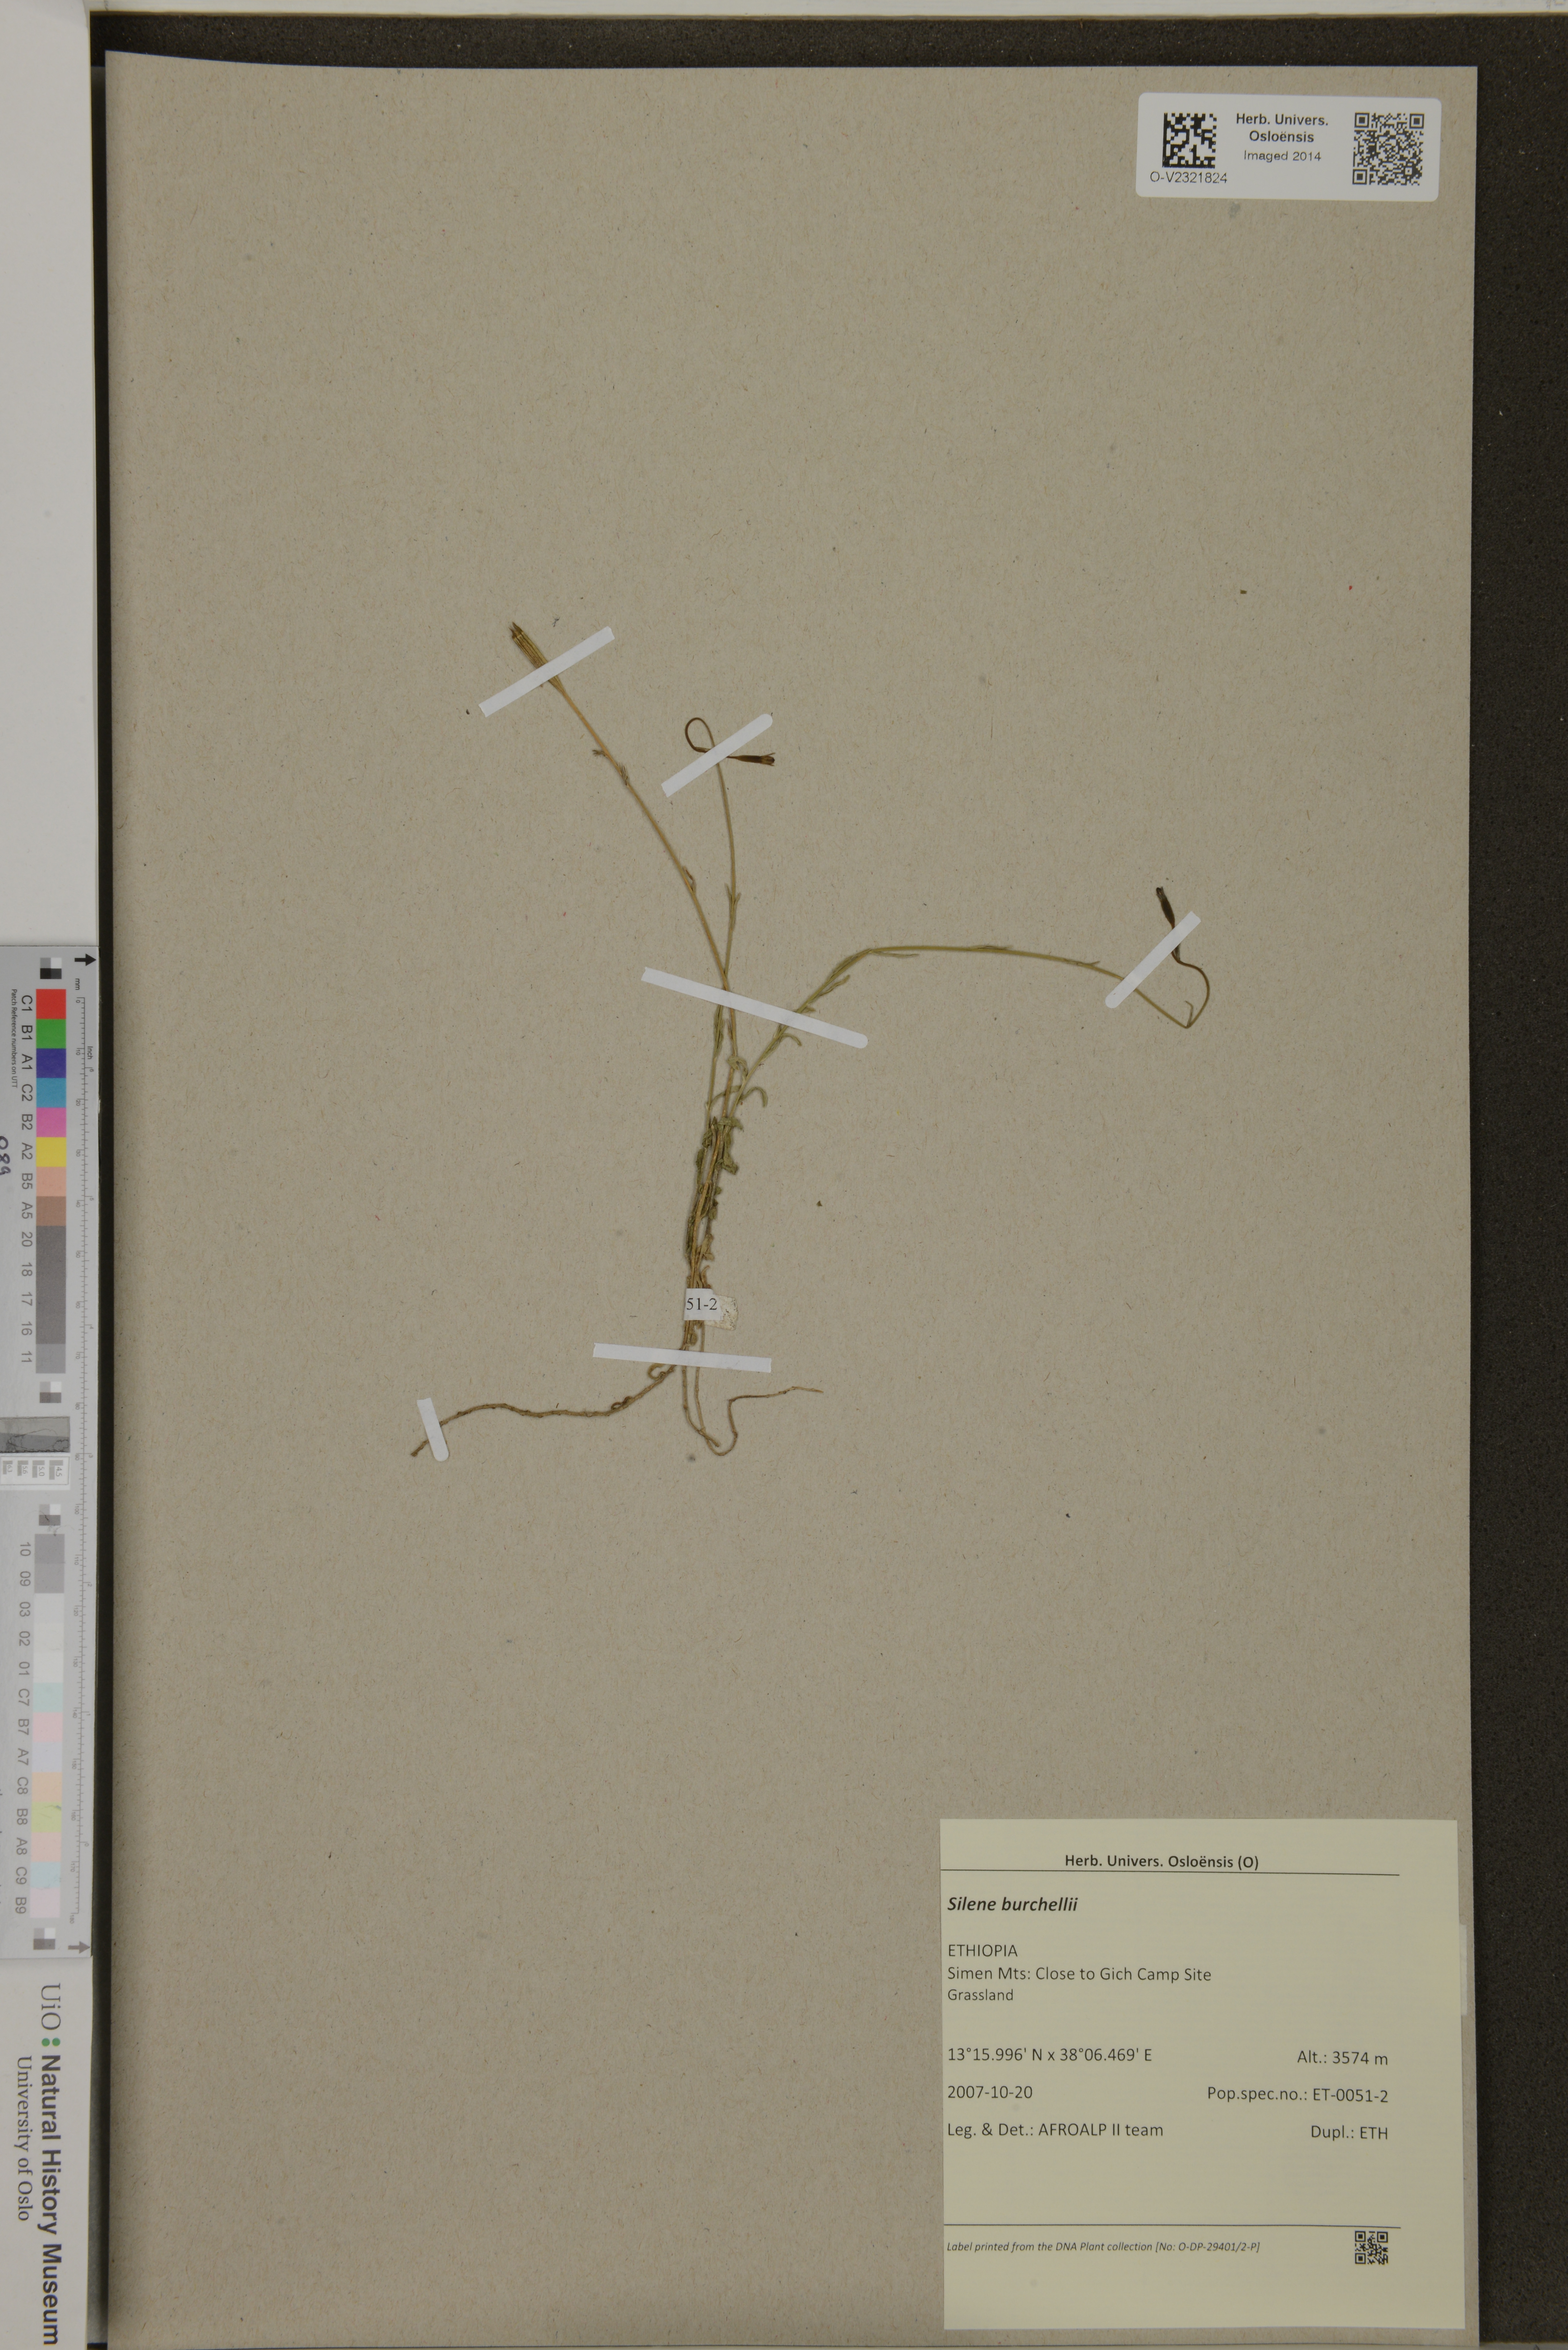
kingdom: Plantae
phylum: Tracheophyta
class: Magnoliopsida
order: Caryophyllales
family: Caryophyllaceae
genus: Silene
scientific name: Silene burchellii
